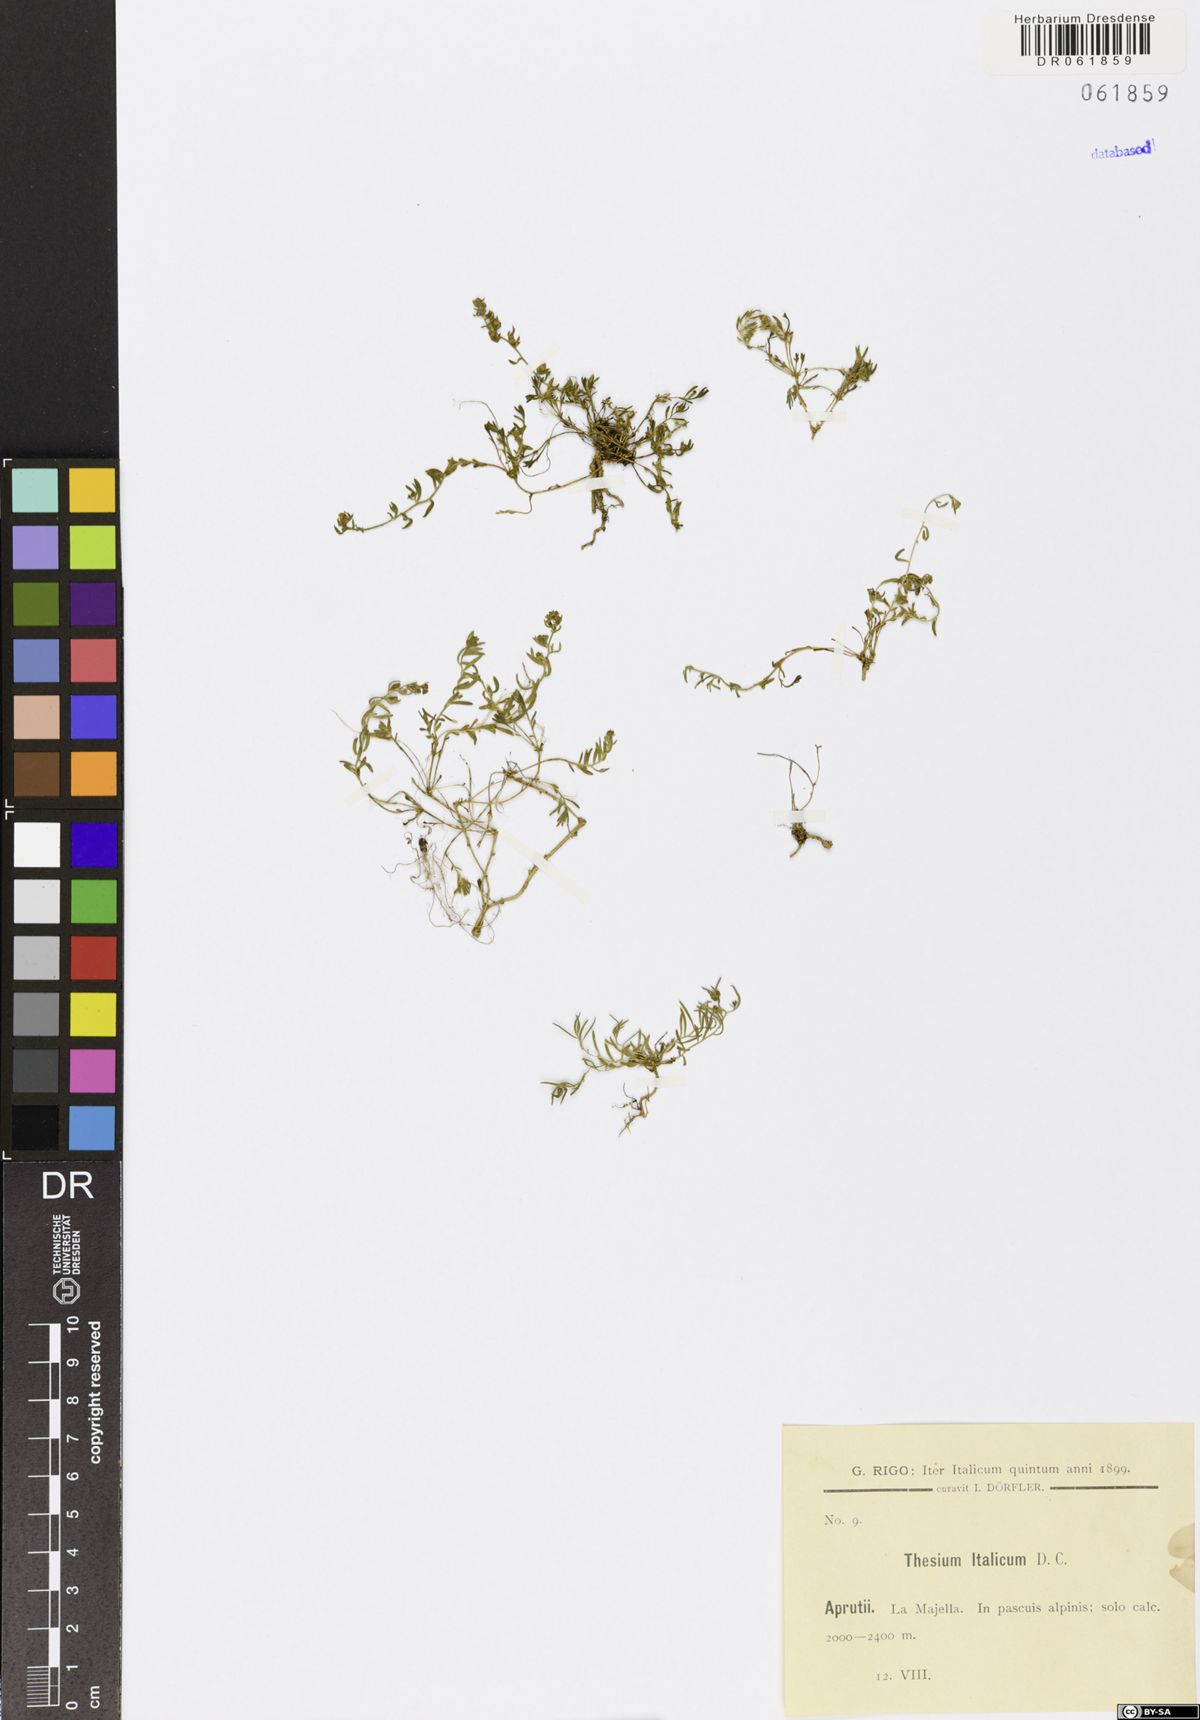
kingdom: Plantae
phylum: Tracheophyta
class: Magnoliopsida
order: Santalales
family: Thesiaceae
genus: Thesium
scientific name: Thesium italicum
